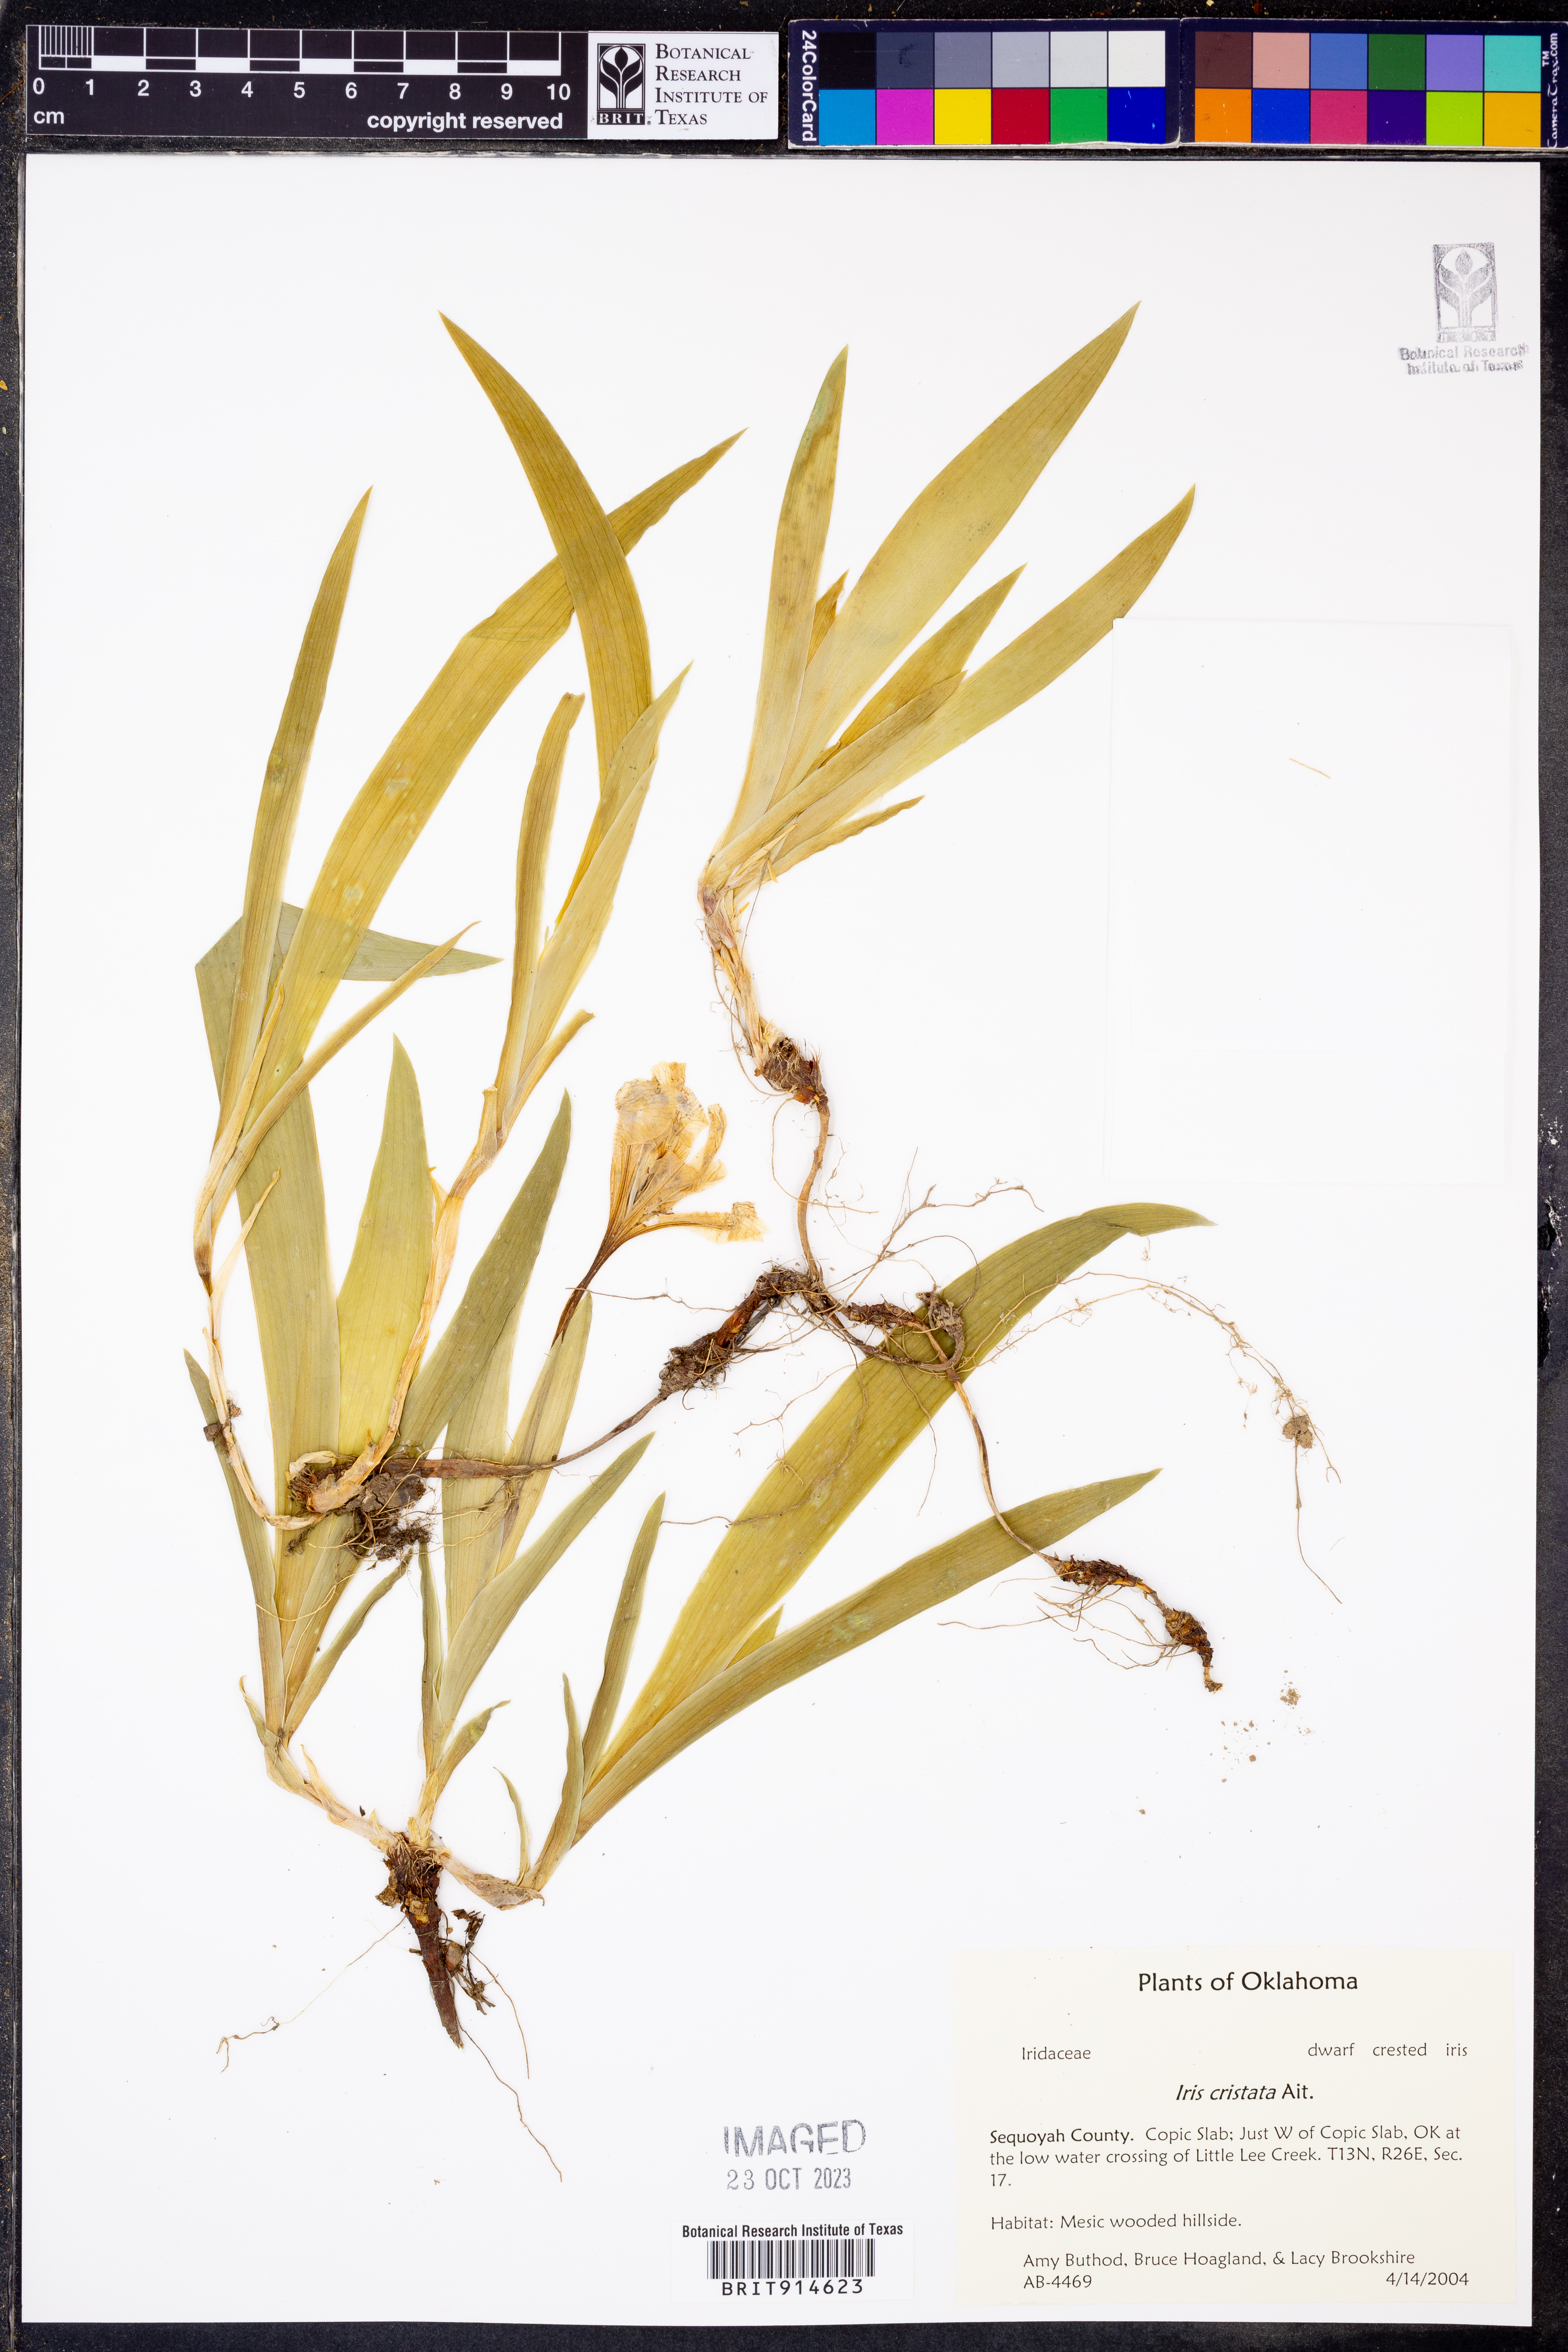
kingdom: Plantae
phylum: Tracheophyta
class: Liliopsida
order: Asparagales
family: Iridaceae
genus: Iris
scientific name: Iris cristata
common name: Crested iris
